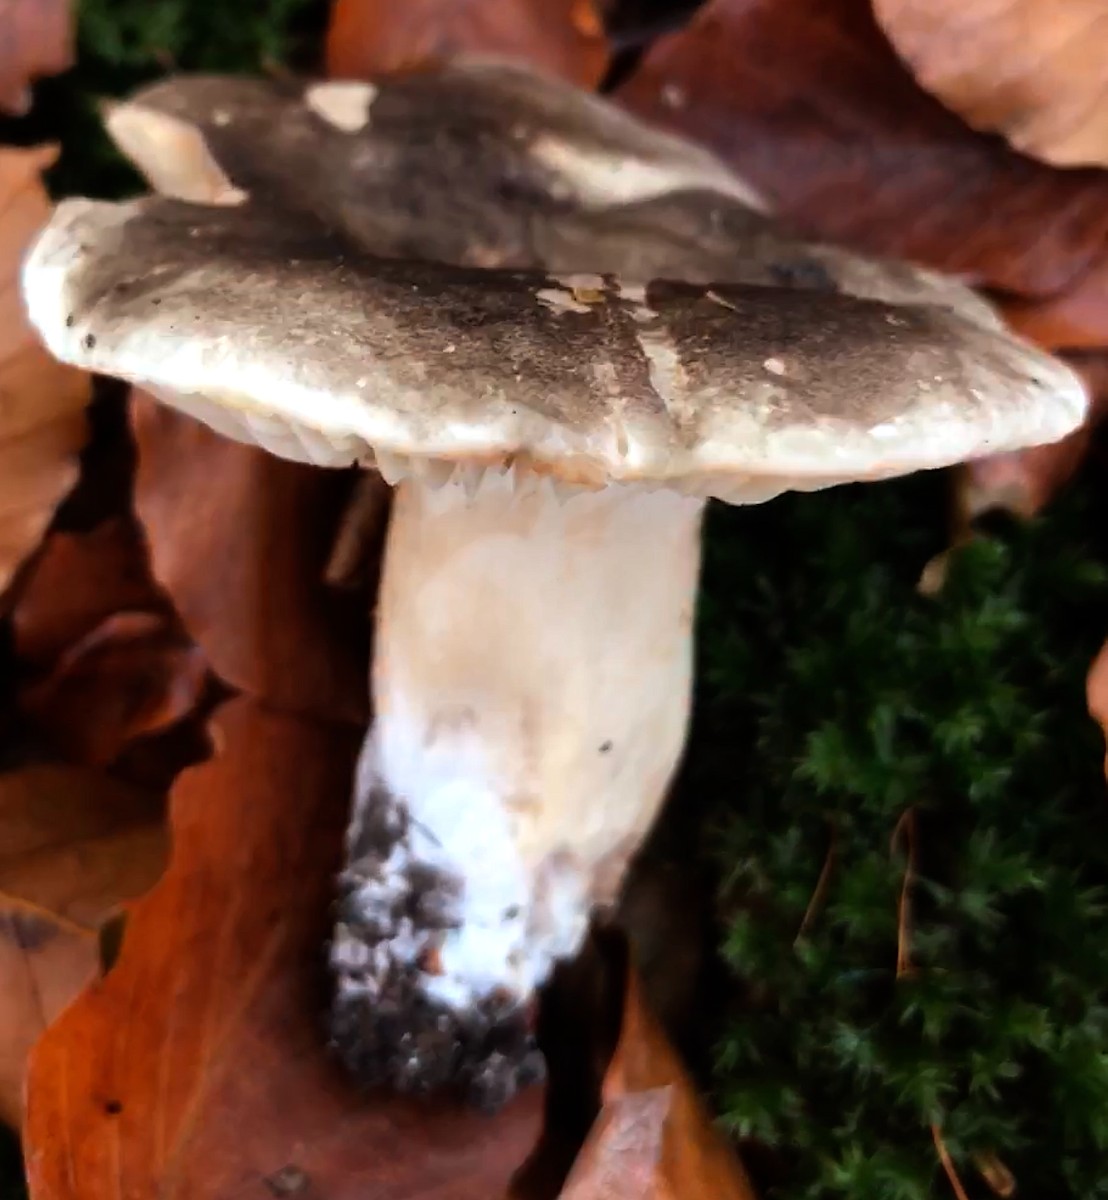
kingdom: Fungi
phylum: Basidiomycota
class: Agaricomycetes
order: Russulales
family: Russulaceae
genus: Russula
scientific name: Russula adusta
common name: sværtende skørhat
